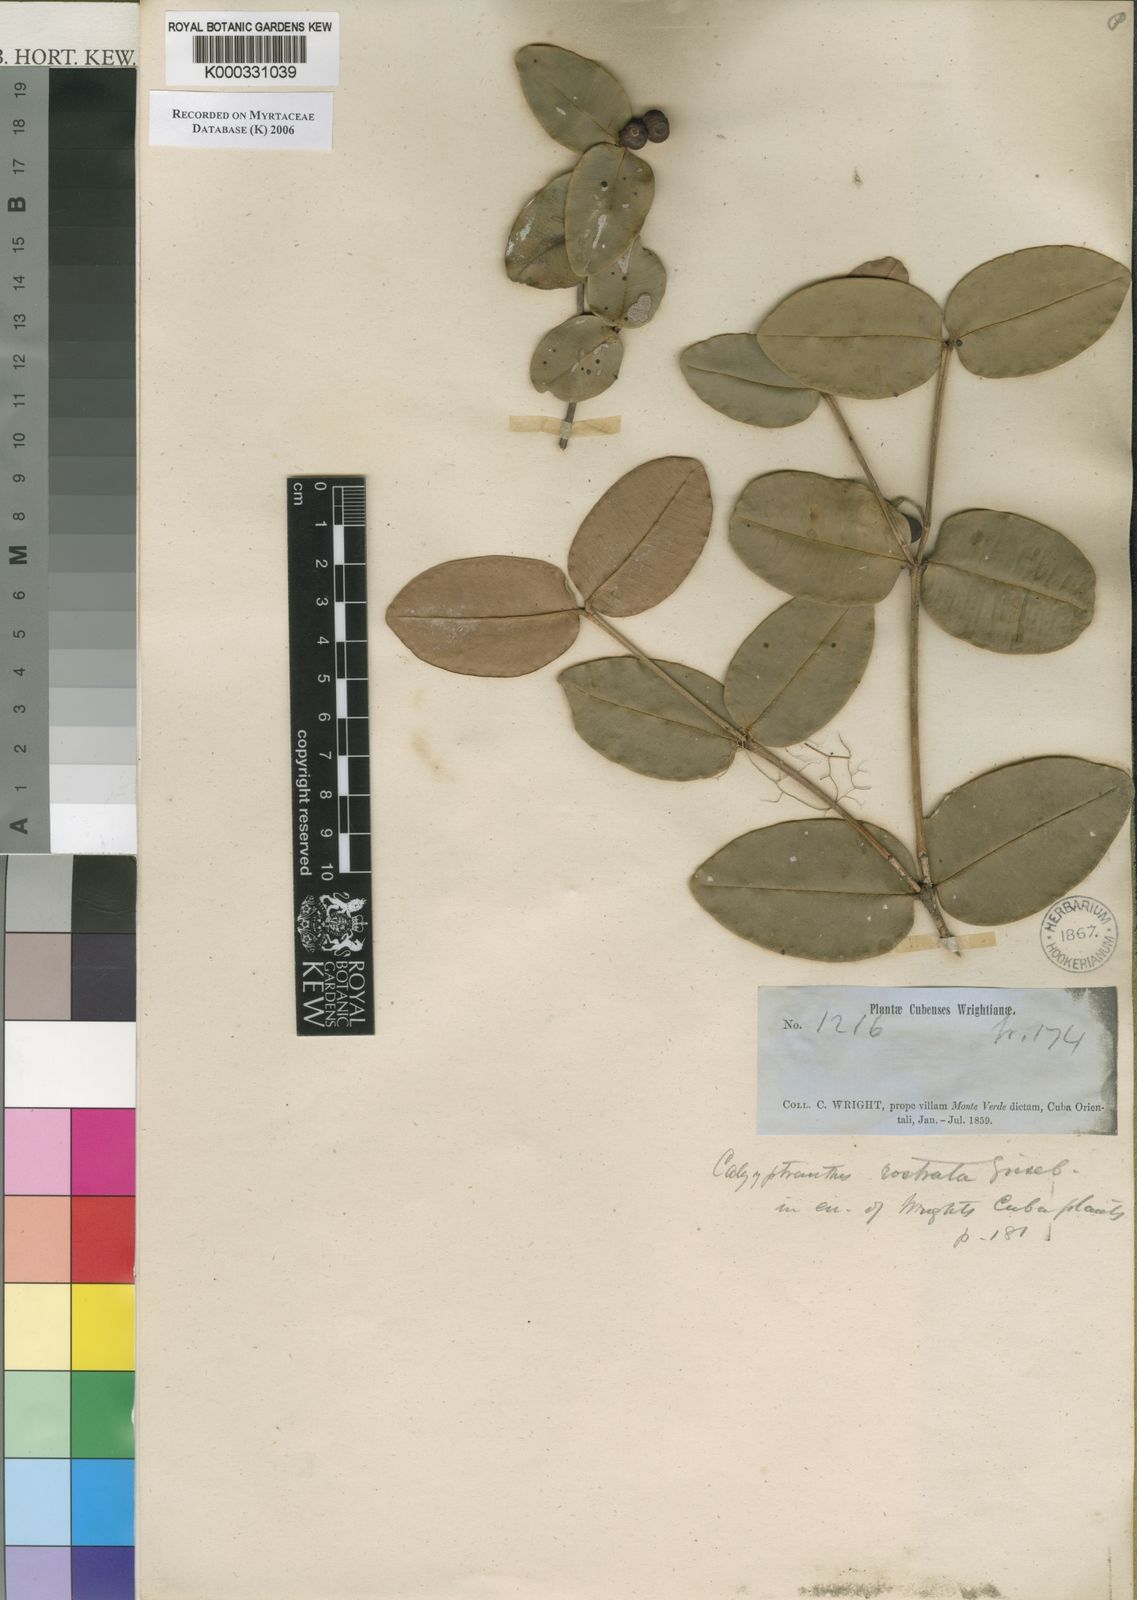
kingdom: Plantae
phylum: Tracheophyta
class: Magnoliopsida
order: Myrtales
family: Myrtaceae
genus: Myrcia
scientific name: Myrcia adunca
